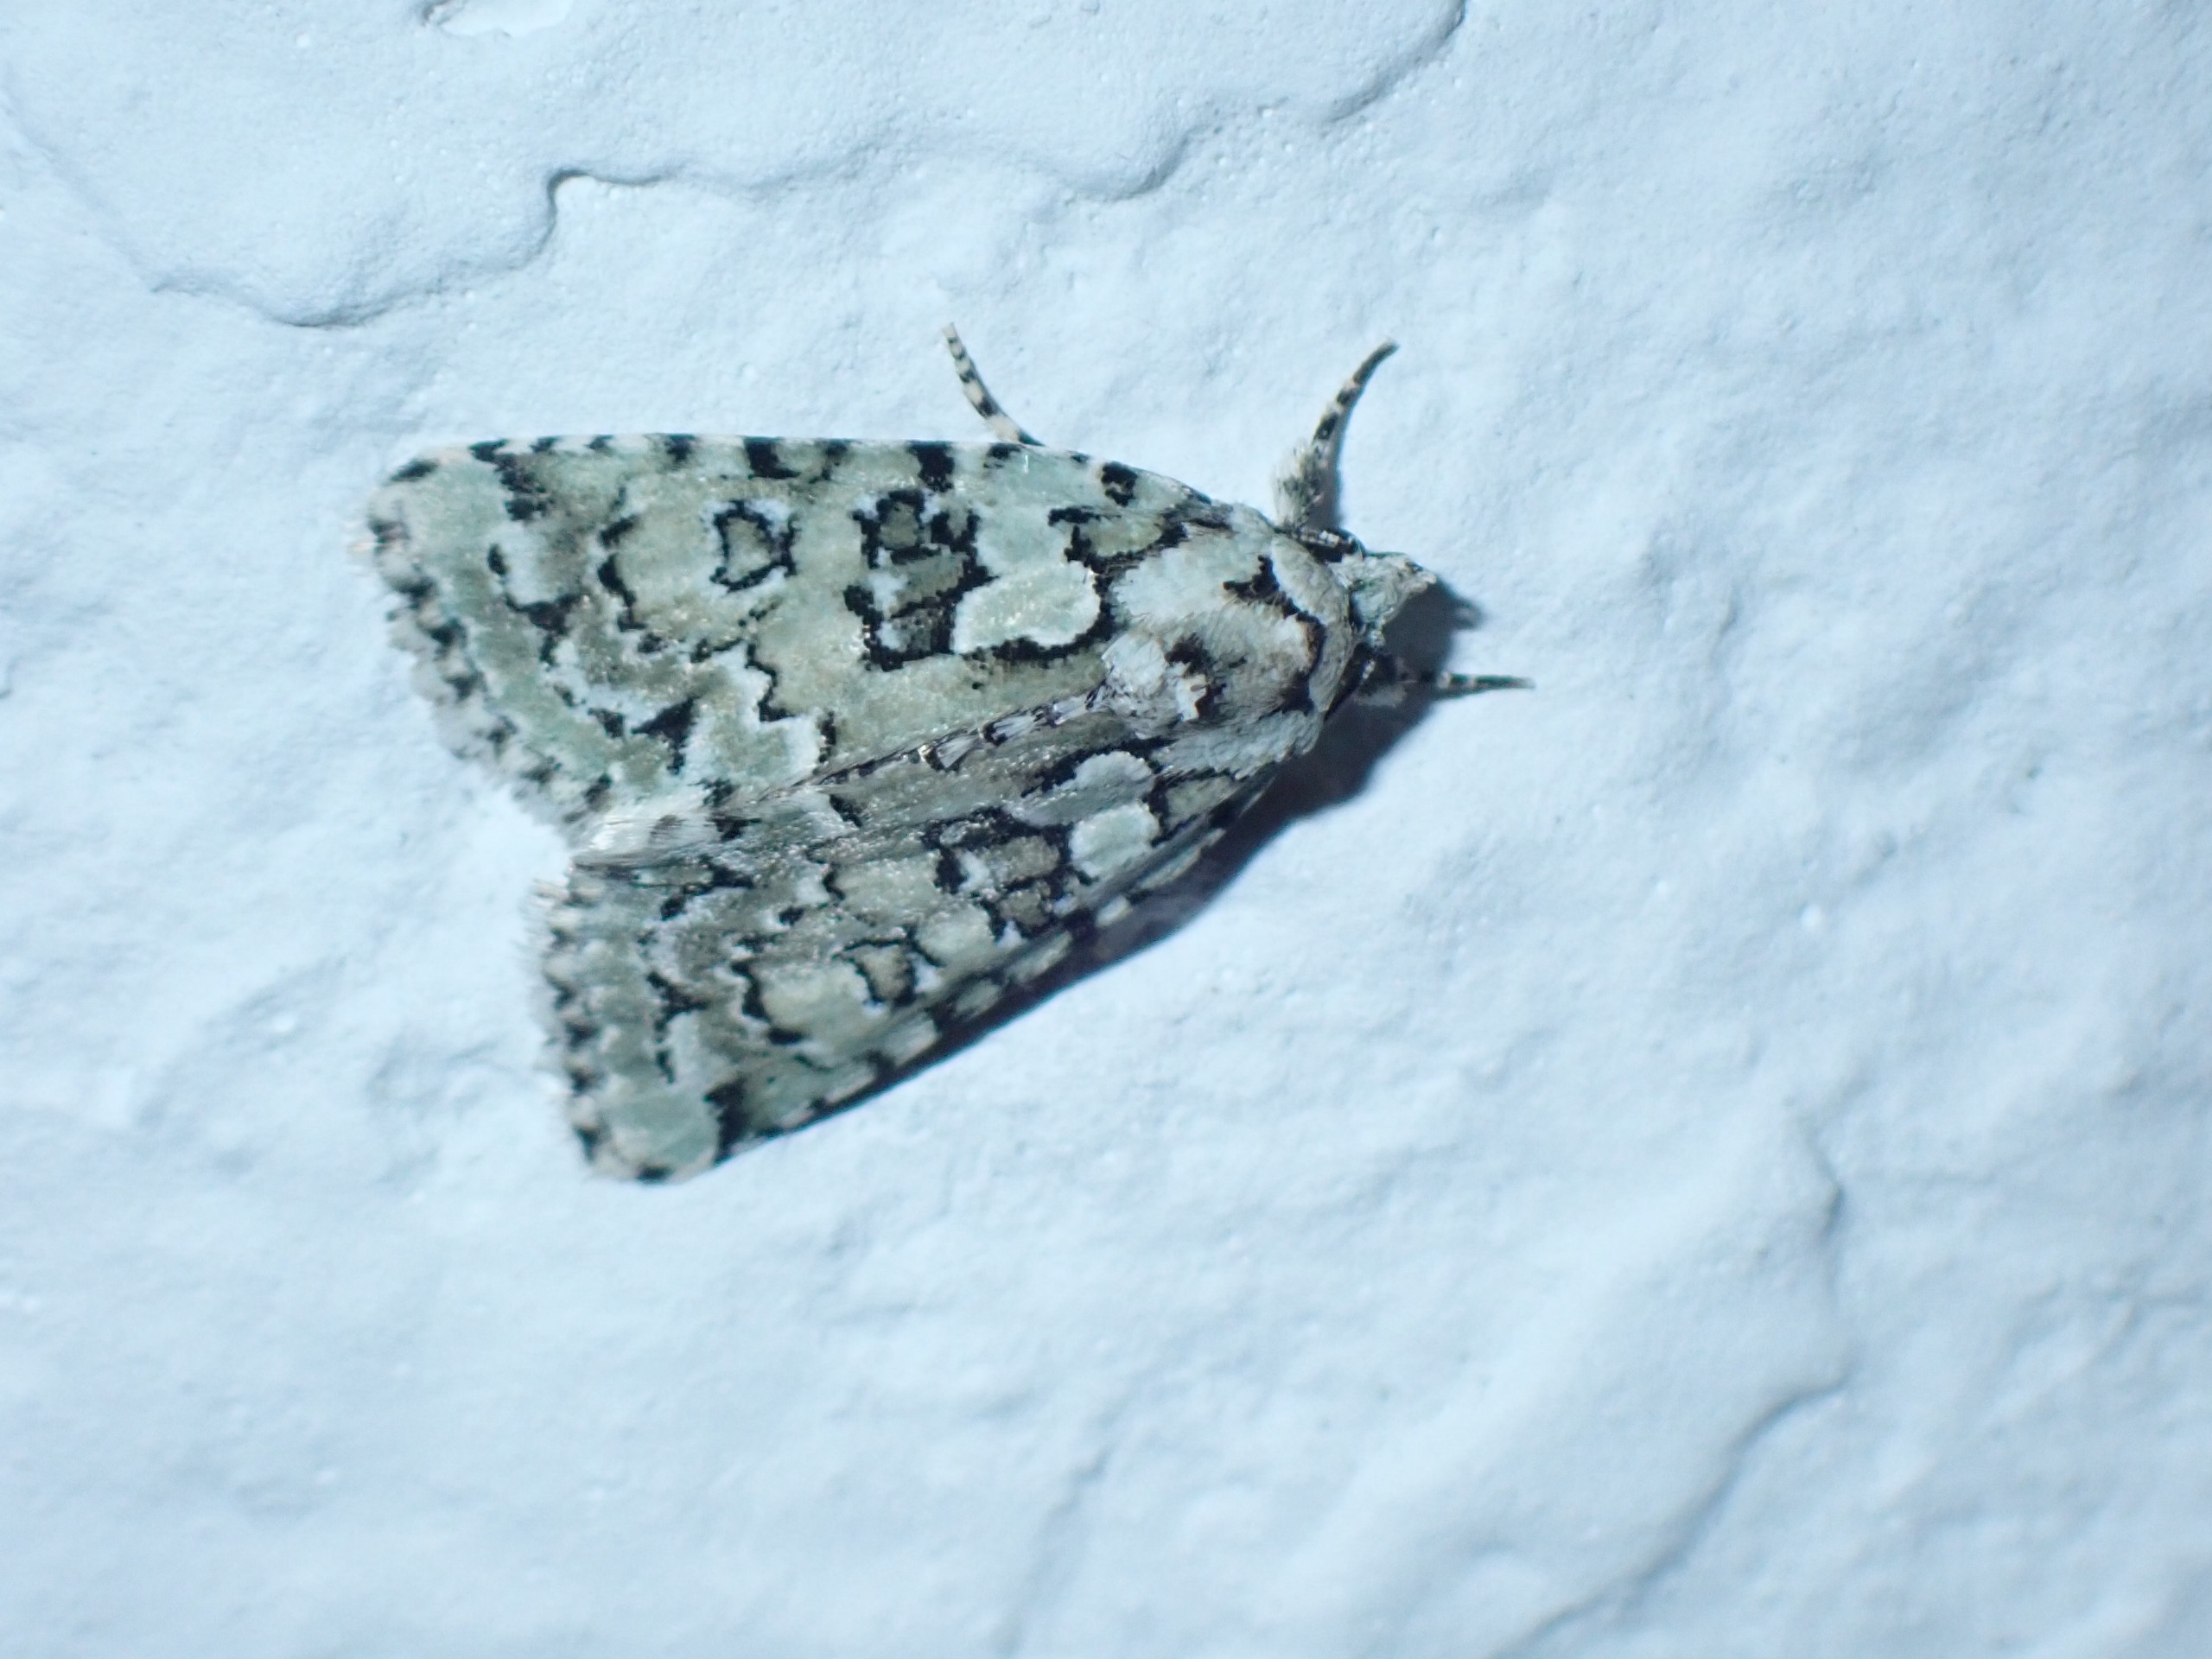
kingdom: Animalia
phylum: Arthropoda
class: Insecta
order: Lepidoptera
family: Noctuidae
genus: Nyctobrya
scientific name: Nyctobrya muralis
